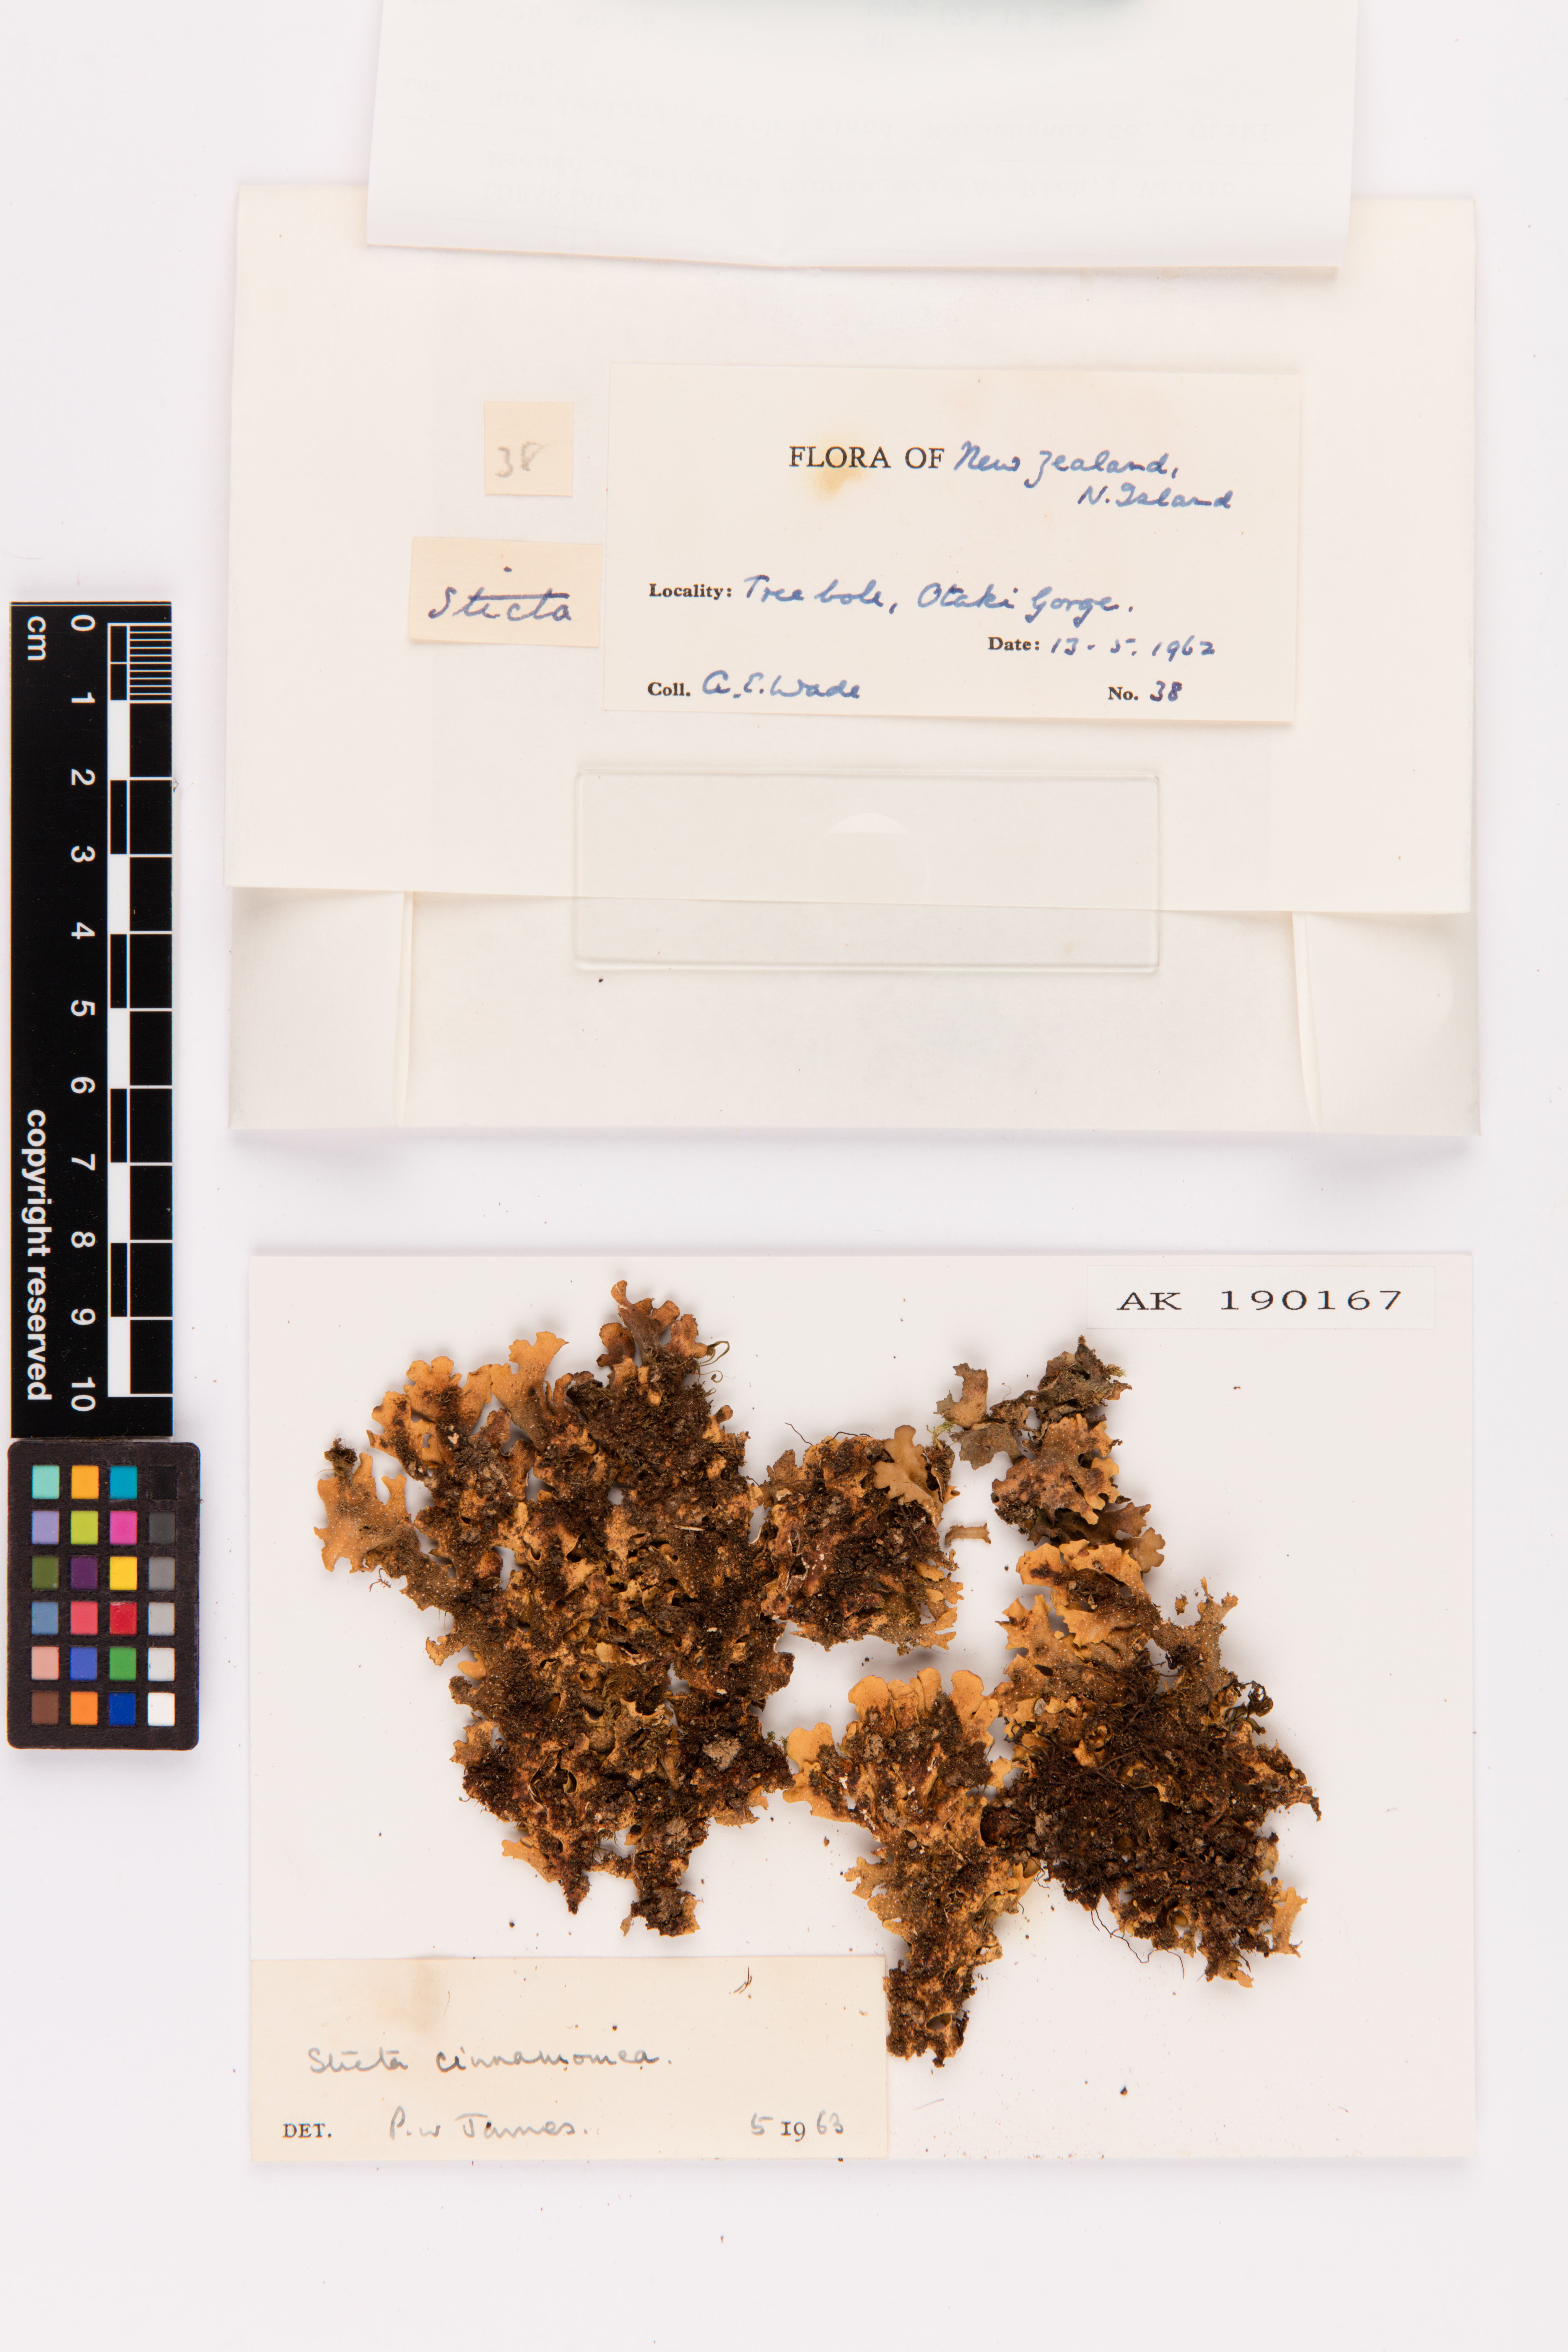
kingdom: Fungi
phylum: Ascomycota
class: Lecanoromycetes
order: Peltigerales
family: Lobariaceae
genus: Pseudocyphellaria
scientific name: Pseudocyphellaria cinnamomea
